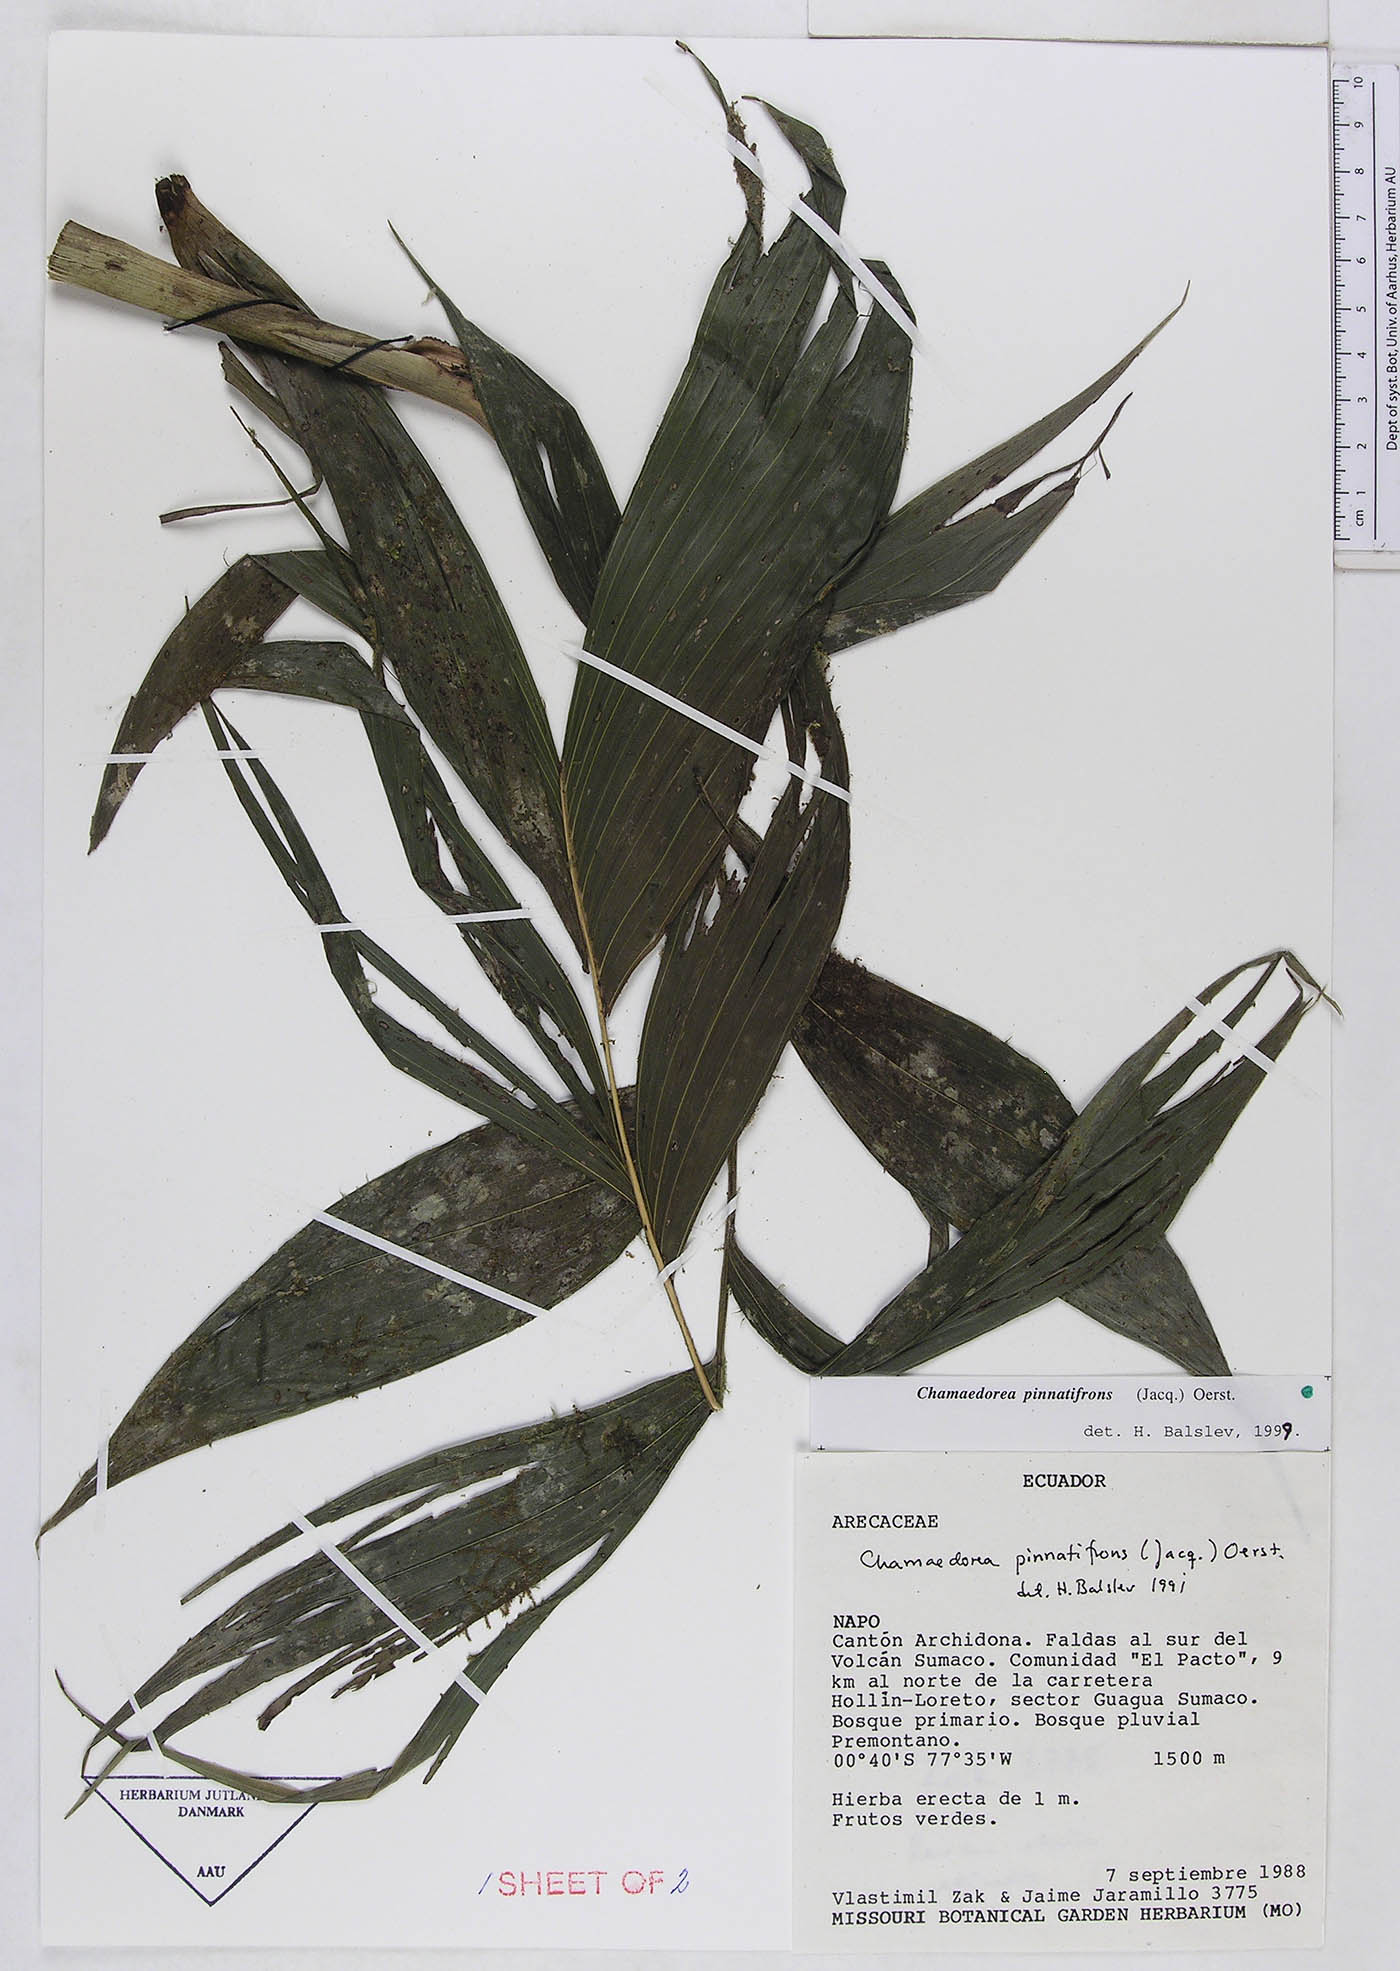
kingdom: Plantae
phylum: Tracheophyta
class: Liliopsida
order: Arecales
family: Arecaceae
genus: Chamaedorea
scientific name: Chamaedorea pinnatifrons
